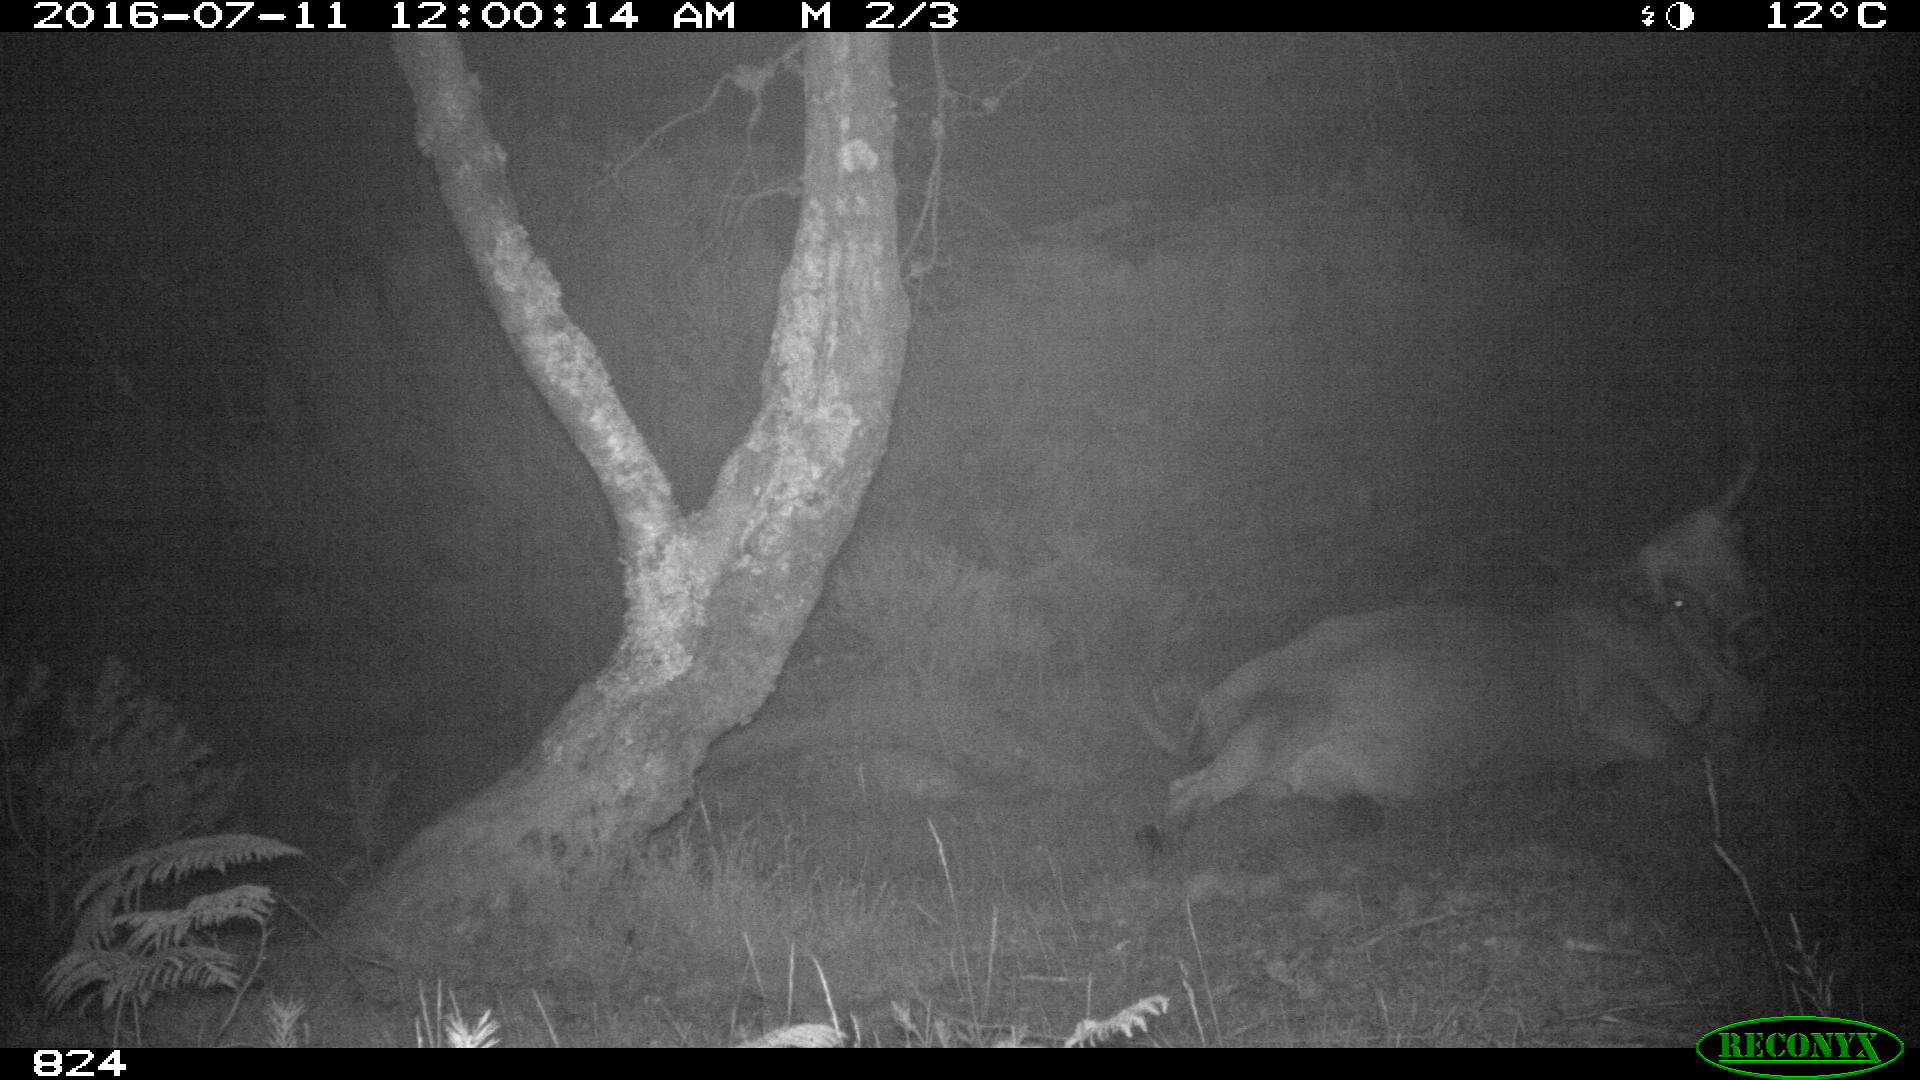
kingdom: Animalia
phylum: Chordata
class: Mammalia
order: Artiodactyla
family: Bovidae
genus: Bos
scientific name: Bos taurus
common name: Domesticated cattle
